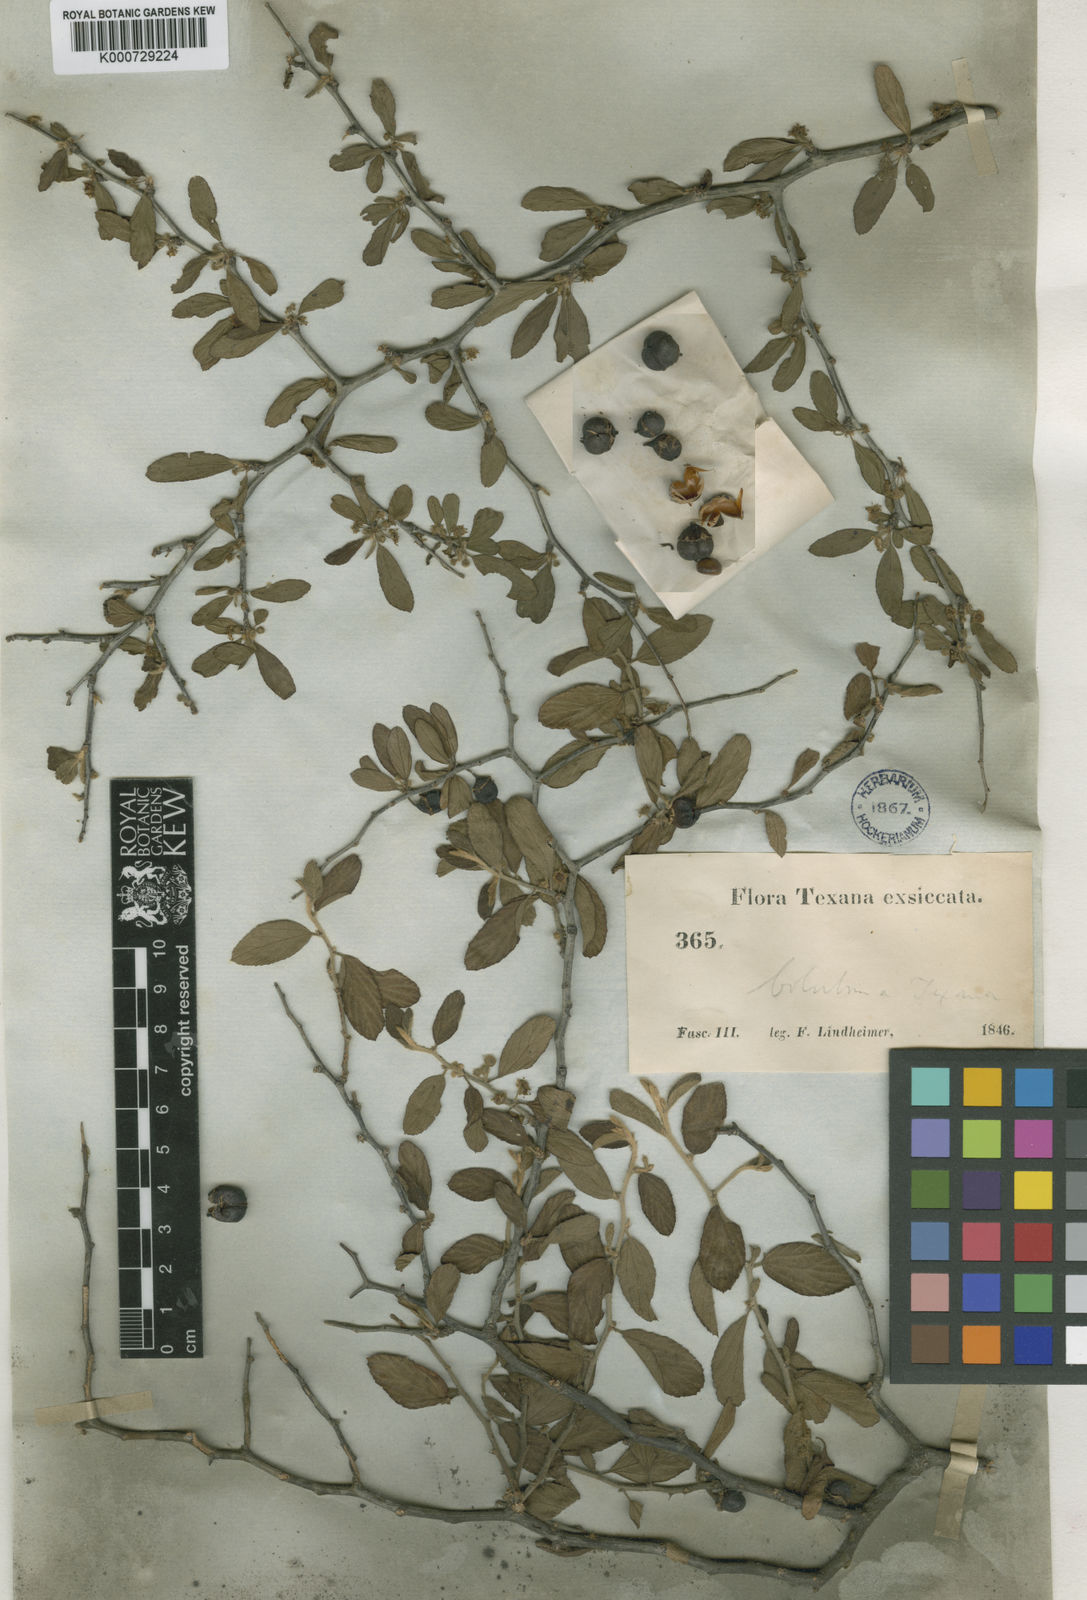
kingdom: Plantae
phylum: Tracheophyta
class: Magnoliopsida
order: Rosales
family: Rhamnaceae
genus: Colubrina
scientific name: Colubrina texensis
